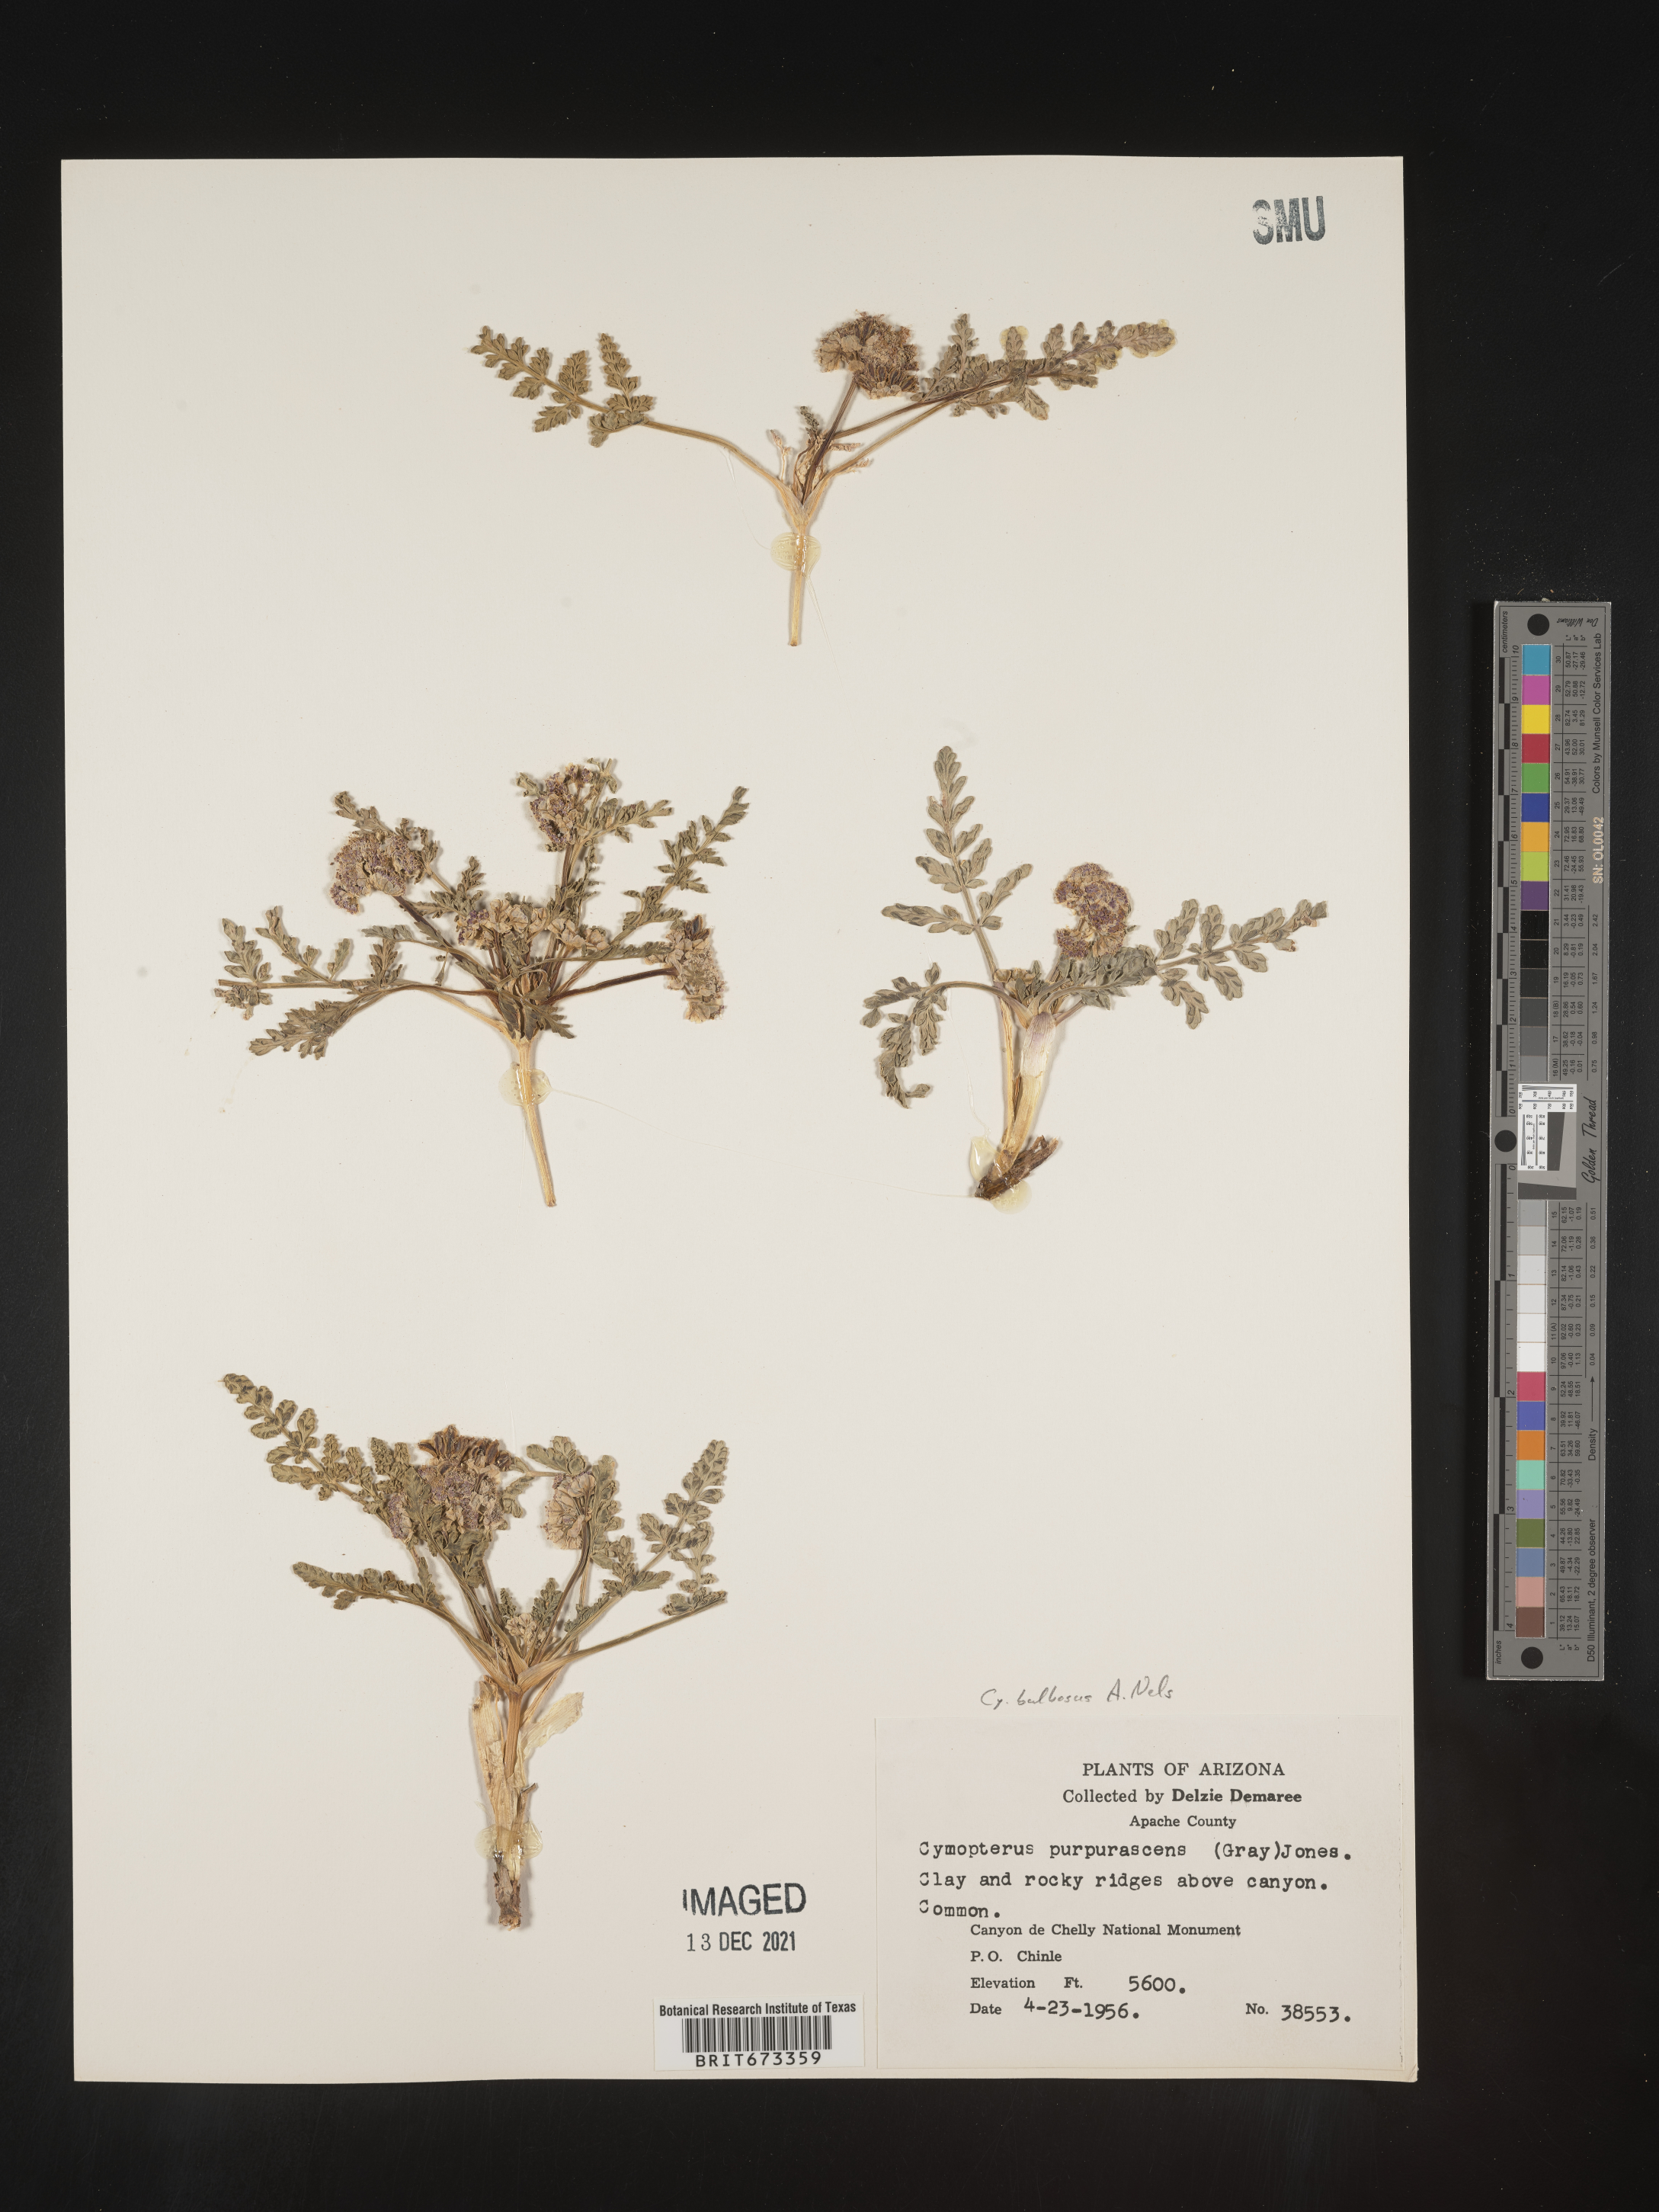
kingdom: Plantae
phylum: Tracheophyta
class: Magnoliopsida
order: Apiales
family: Apiaceae
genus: Vesper
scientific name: Vesper bulbosus
